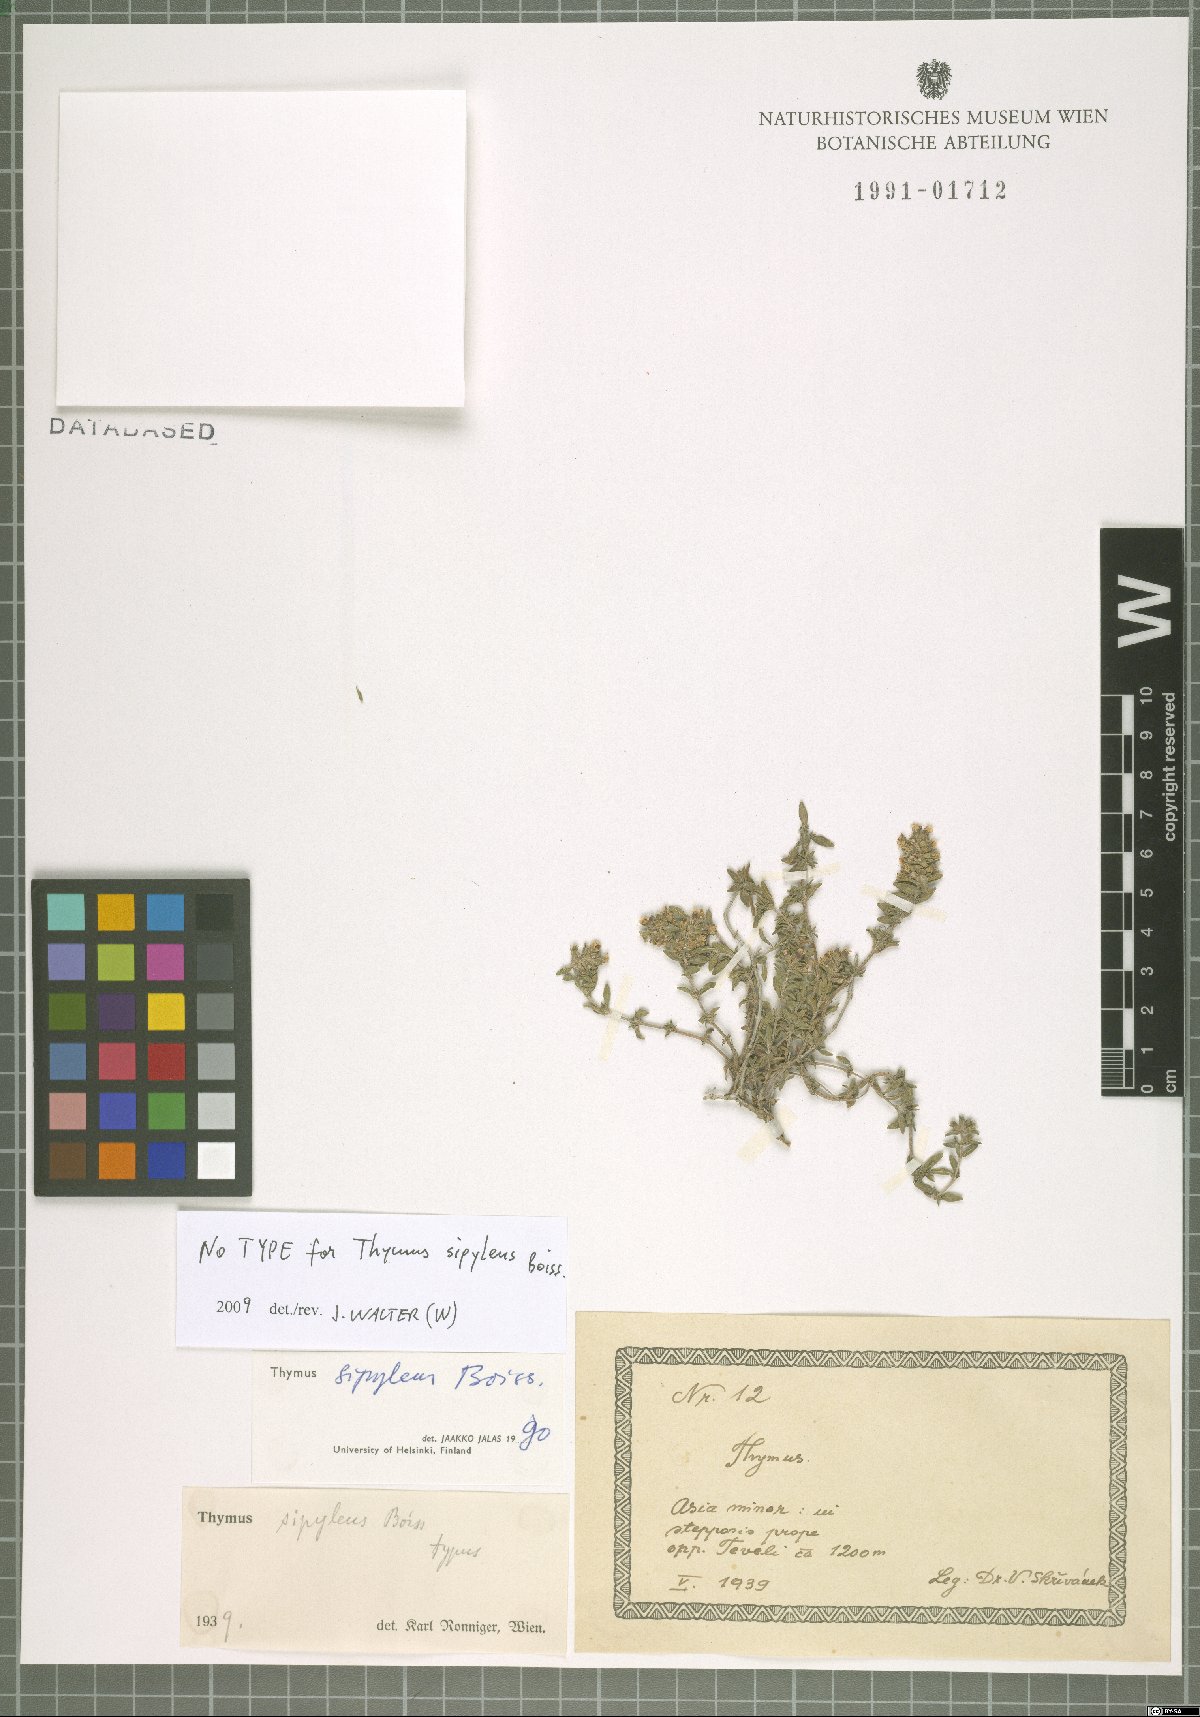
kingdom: Plantae
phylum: Tracheophyta
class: Magnoliopsida
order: Lamiales
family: Lamiaceae
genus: Thymus
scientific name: Thymus sipyleus
